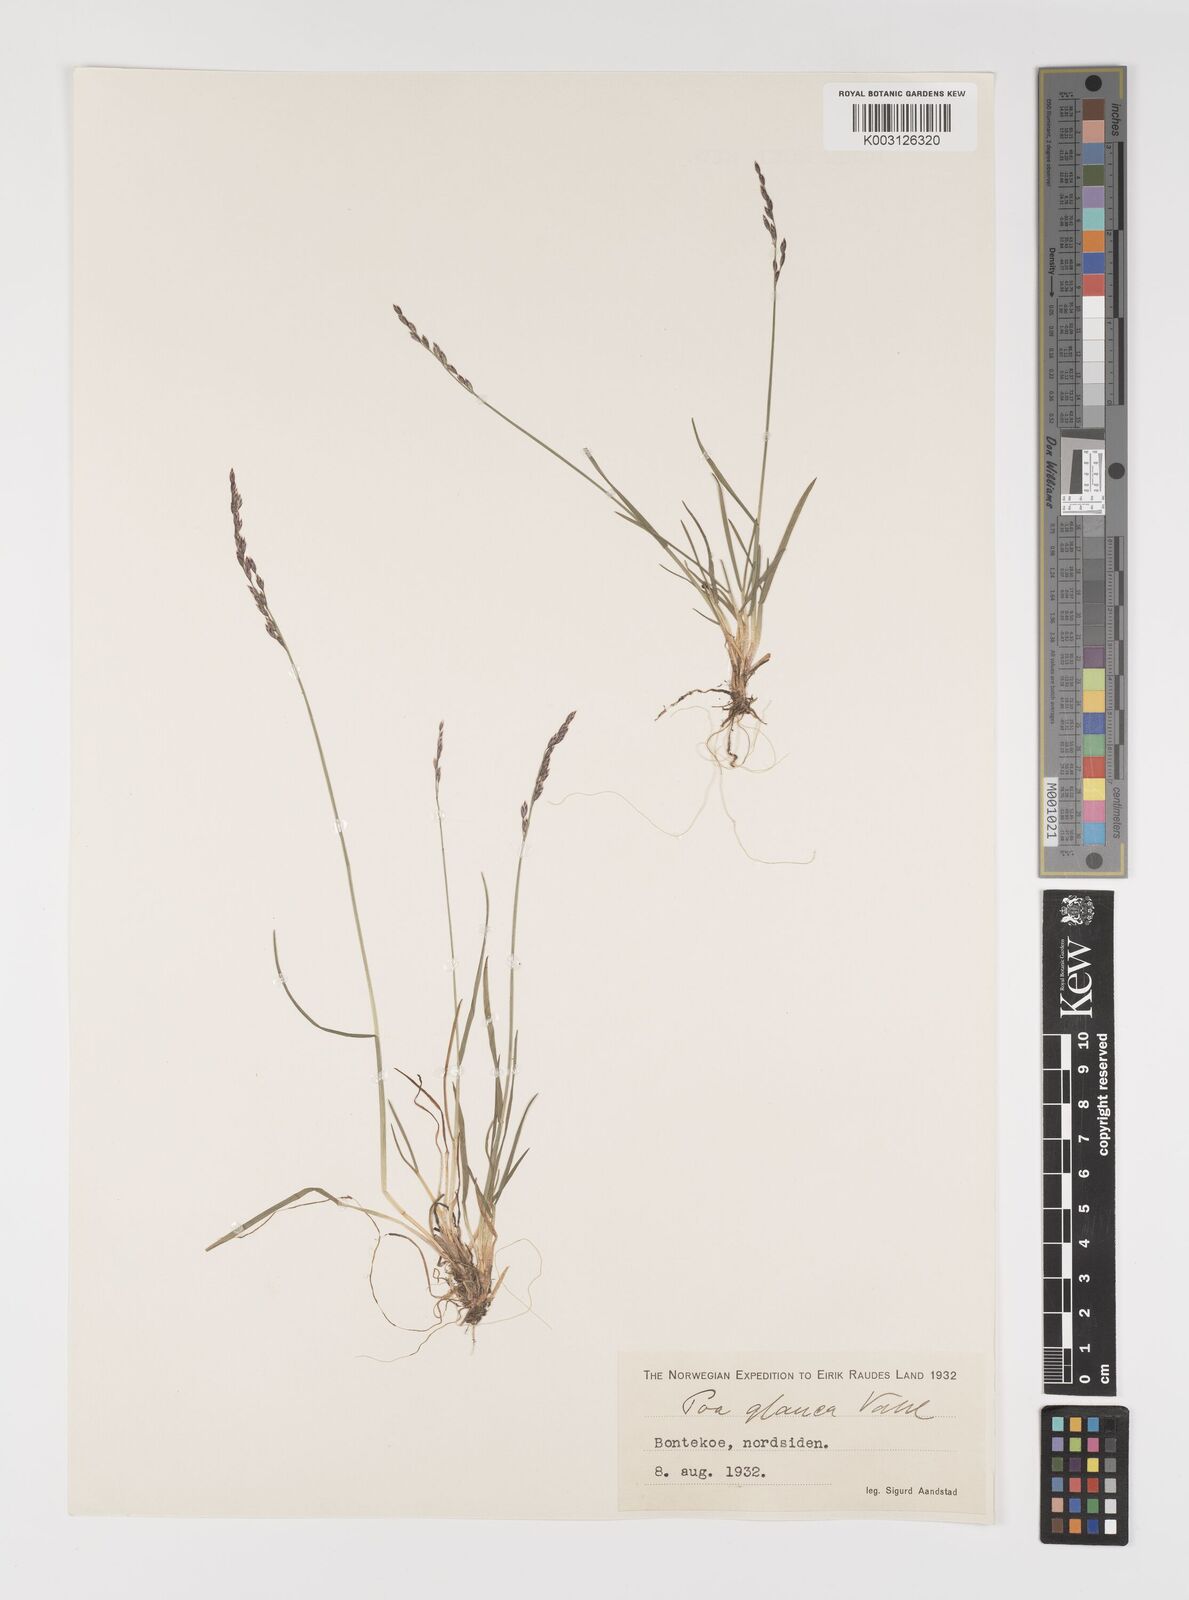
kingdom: Plantae
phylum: Tracheophyta
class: Liliopsida
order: Poales
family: Poaceae
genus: Poa
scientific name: Poa glauca
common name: Glaucous bluegrass
